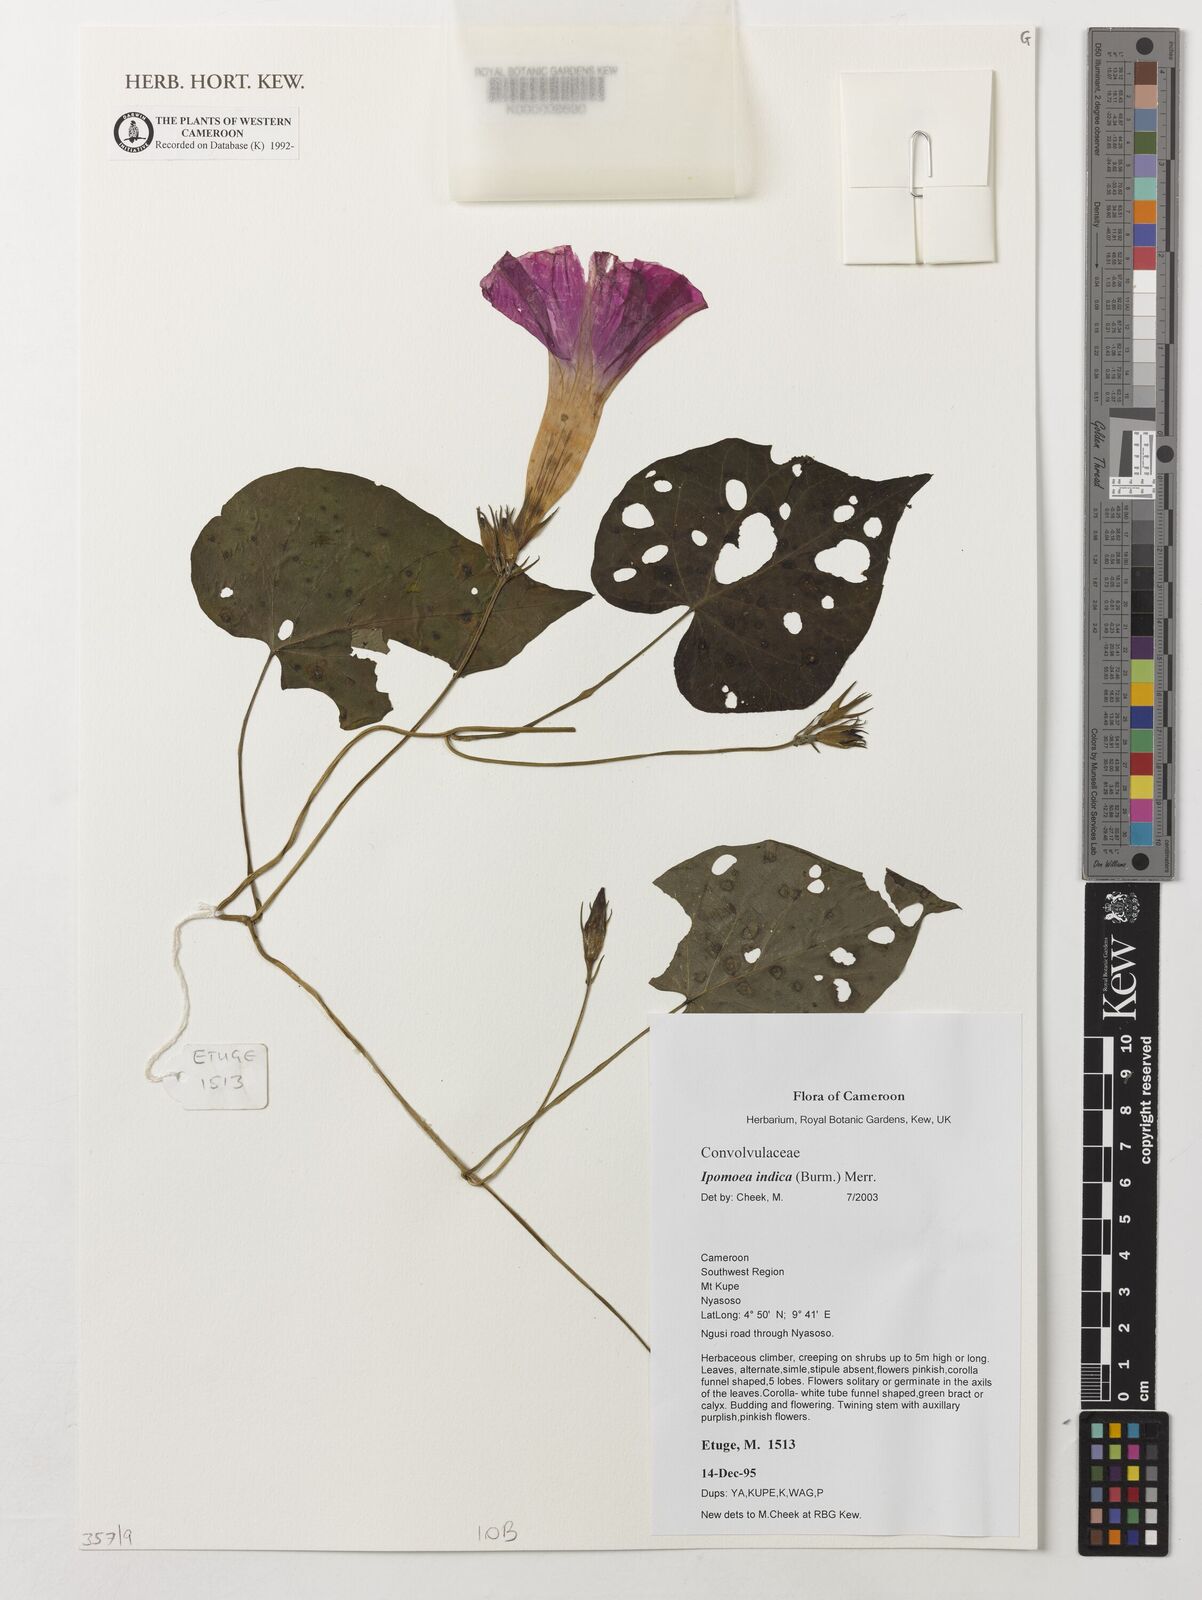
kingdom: Plantae
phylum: Tracheophyta
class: Magnoliopsida
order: Solanales
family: Convolvulaceae
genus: Ipomoea
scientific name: Ipomoea indica
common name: Blue dawnflower
